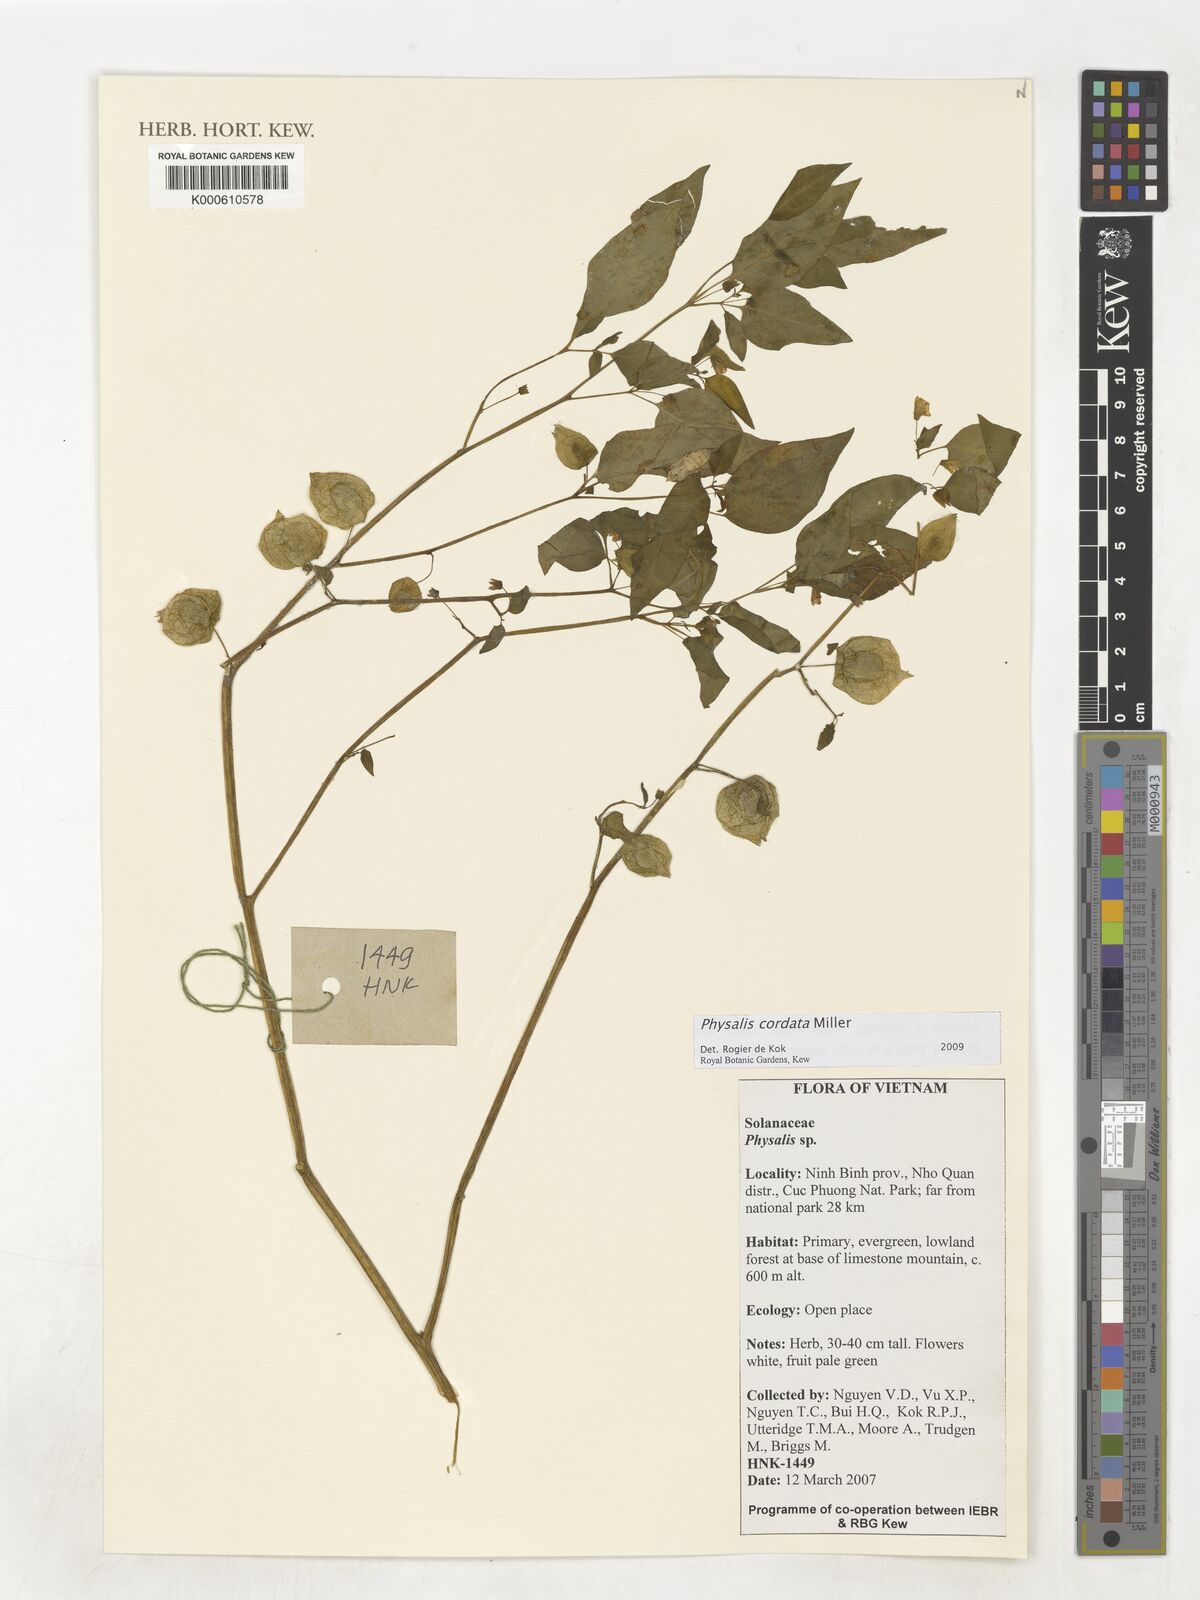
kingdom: Plantae
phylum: Tracheophyta
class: Magnoliopsida
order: Solanales
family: Solanaceae
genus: Physalis
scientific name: Physalis cordata
